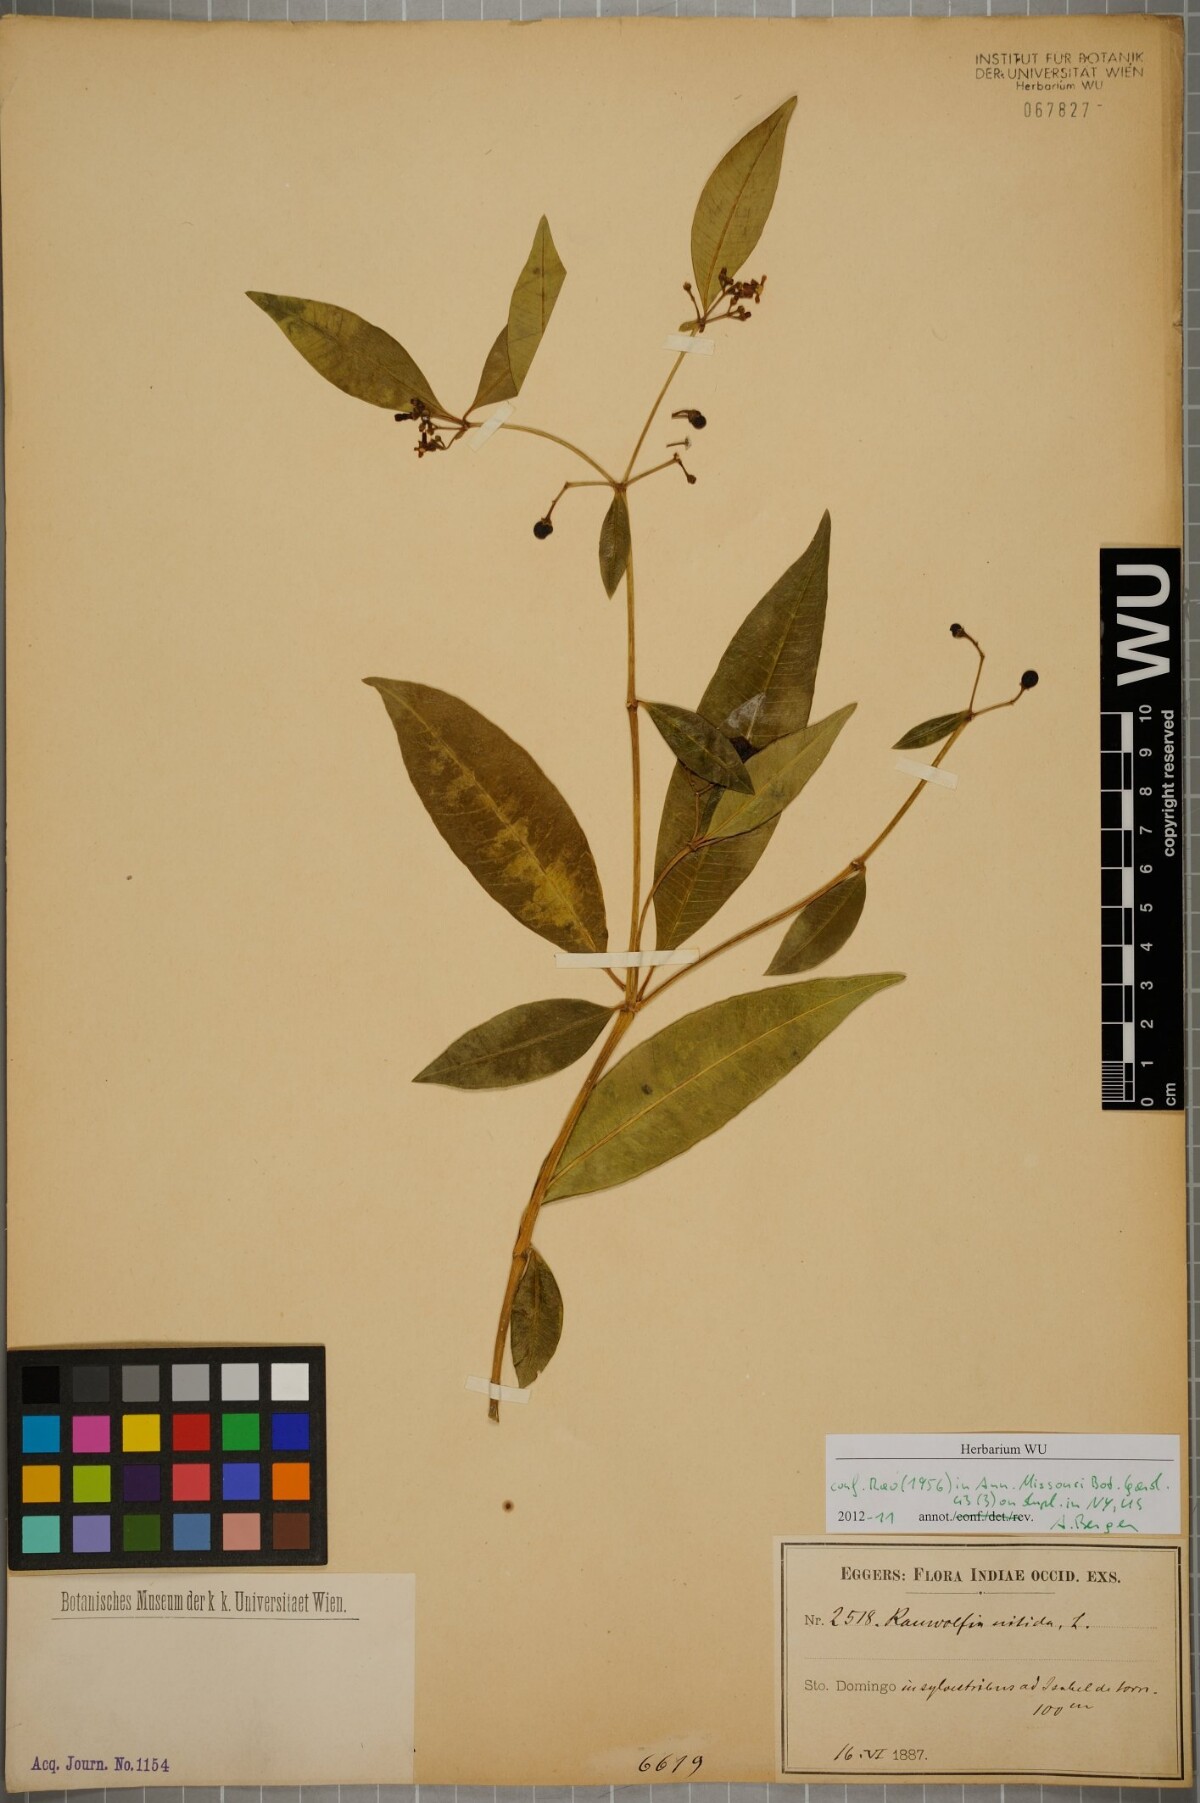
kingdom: Plantae
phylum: Tracheophyta
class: Magnoliopsida
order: Gentianales
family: Apocynaceae
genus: Rauvolfia
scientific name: Rauvolfia nitida
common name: Bitter-ash
